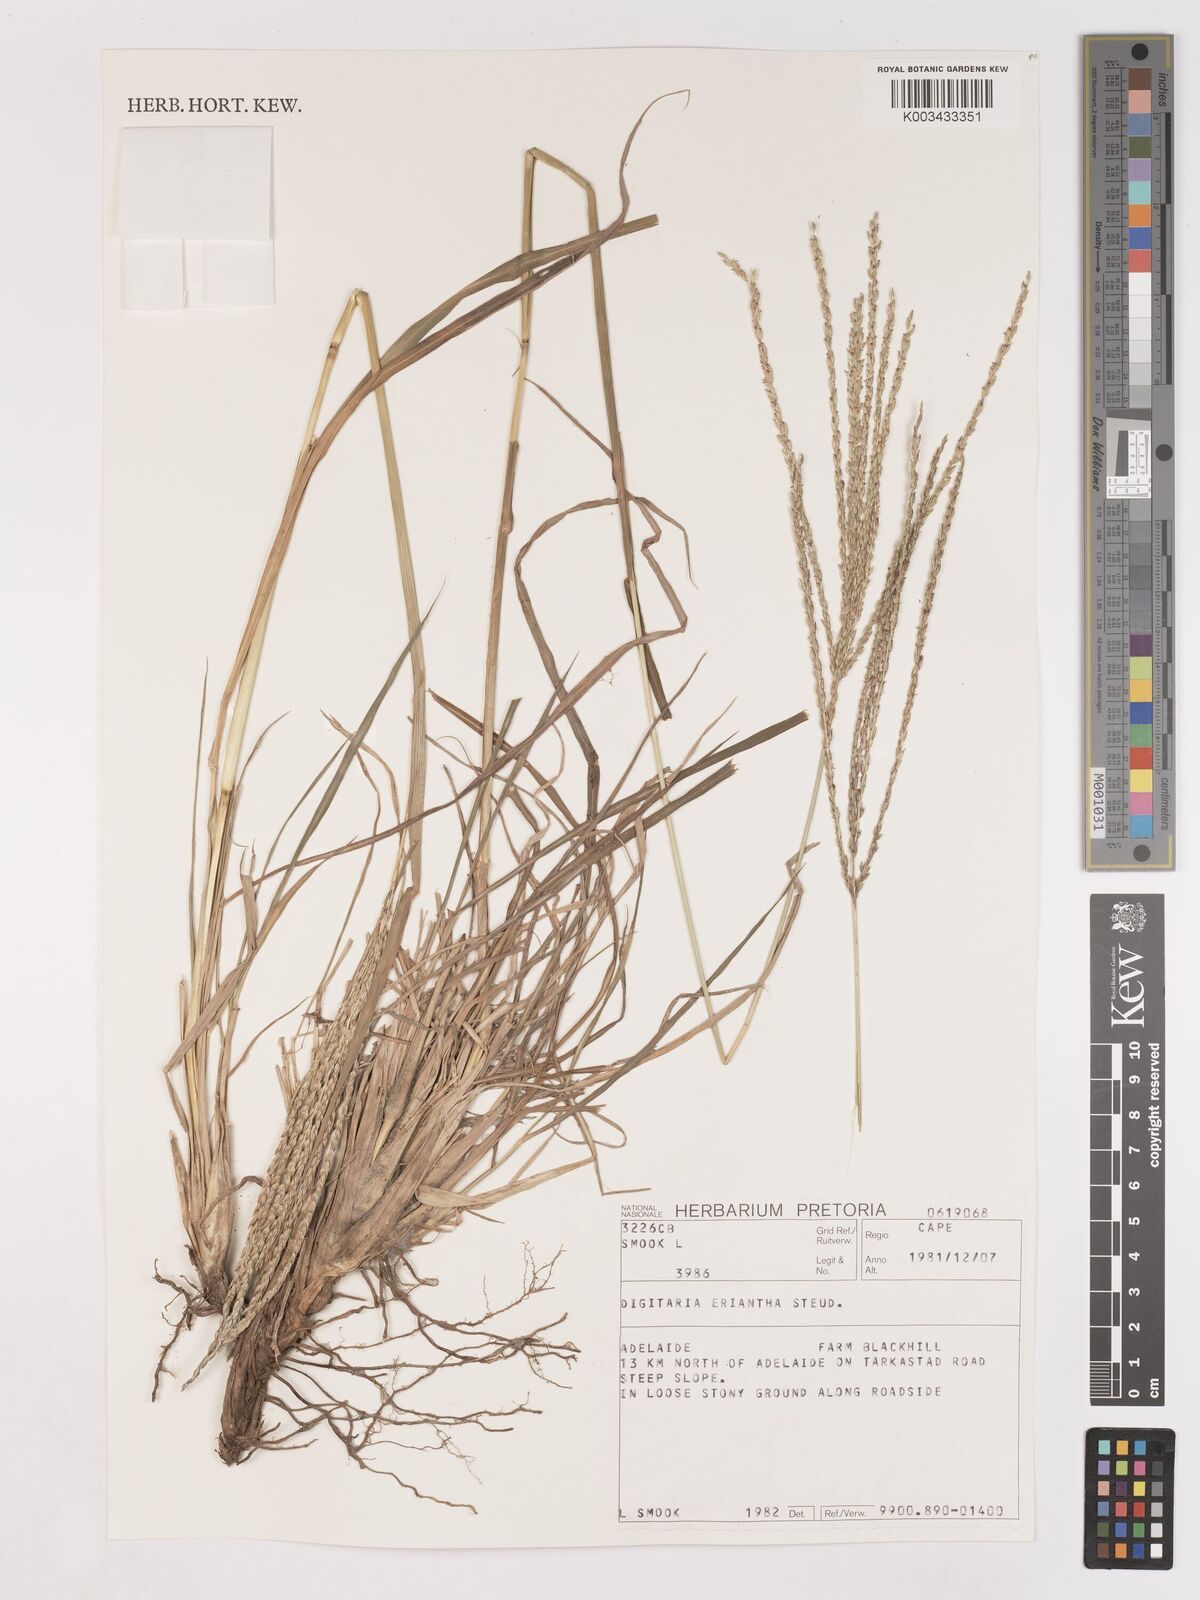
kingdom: Plantae
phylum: Tracheophyta
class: Liliopsida
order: Poales
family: Poaceae
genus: Digitaria
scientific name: Digitaria eriantha
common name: Digitgrass
